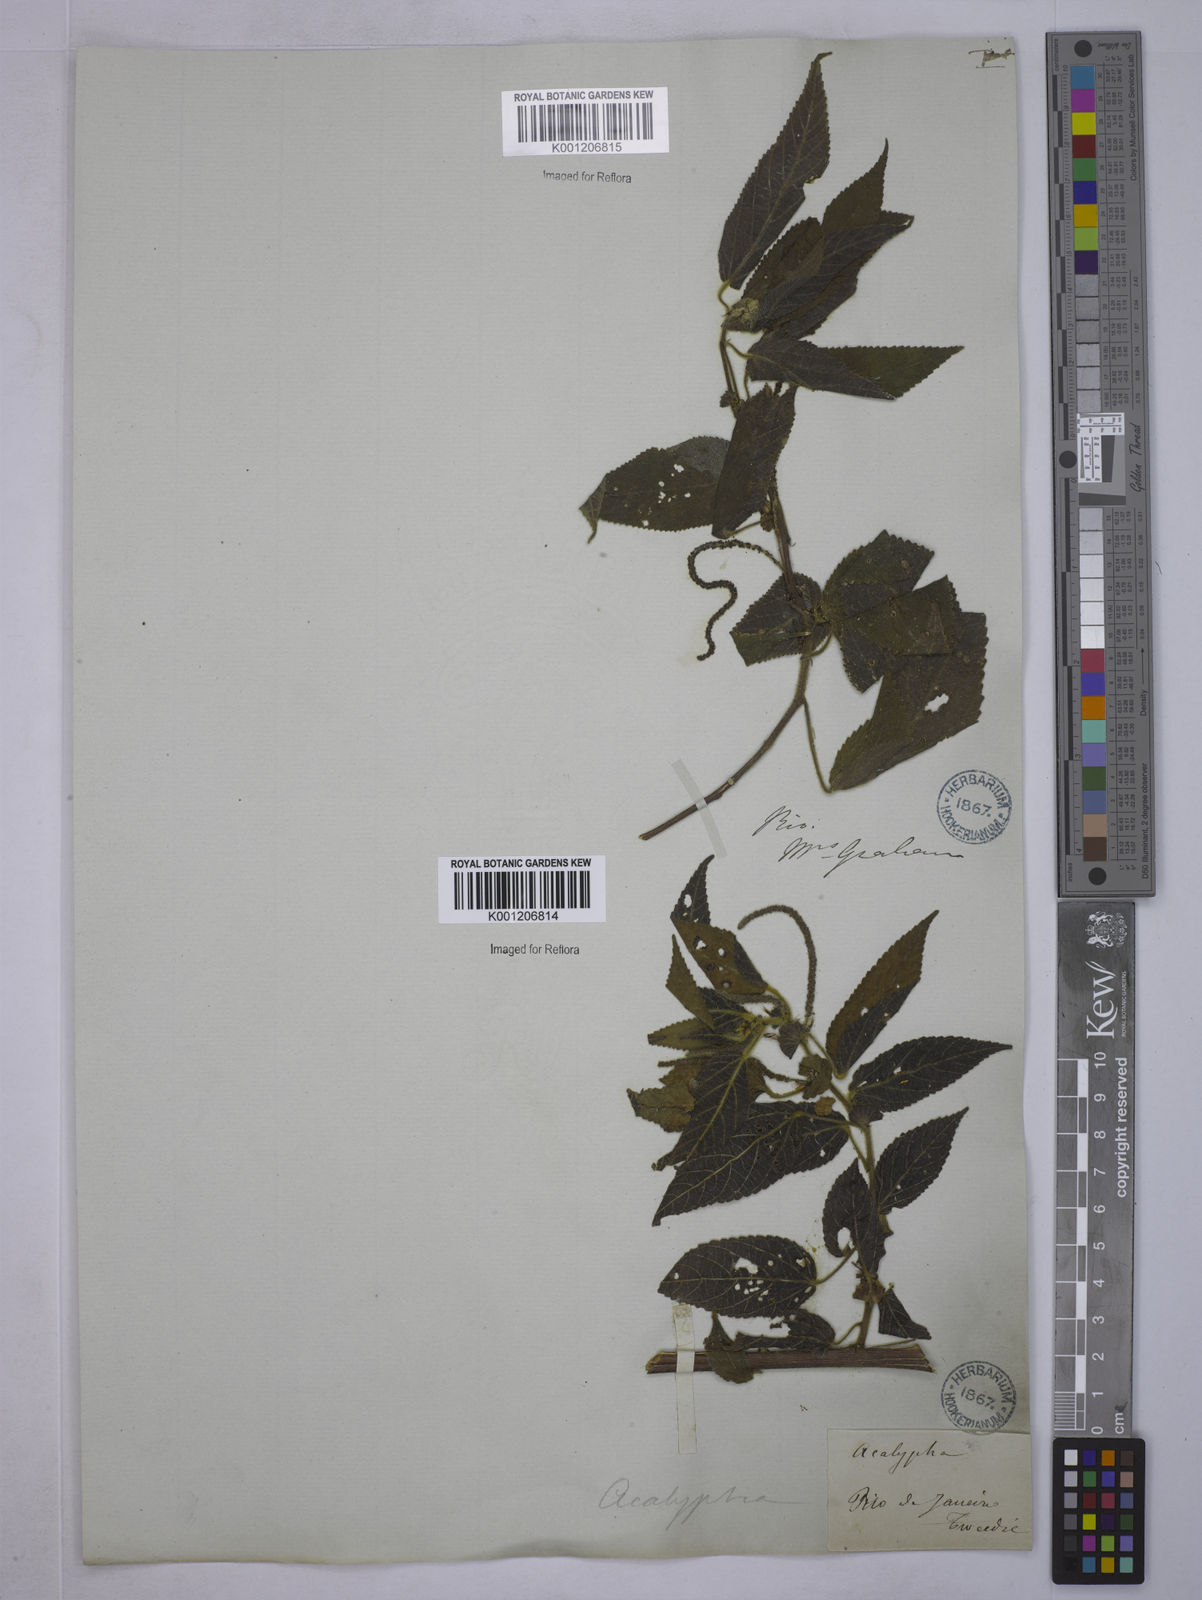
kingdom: Plantae
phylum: Tracheophyta
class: Magnoliopsida
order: Malpighiales
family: Euphorbiaceae
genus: Acalypha
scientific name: Acalypha
